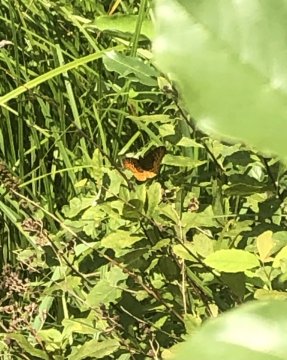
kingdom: Animalia
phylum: Arthropoda
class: Insecta
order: Lepidoptera
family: Nymphalidae
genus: Clossiana
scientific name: Clossiana toddi
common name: Meadow Fritillary
